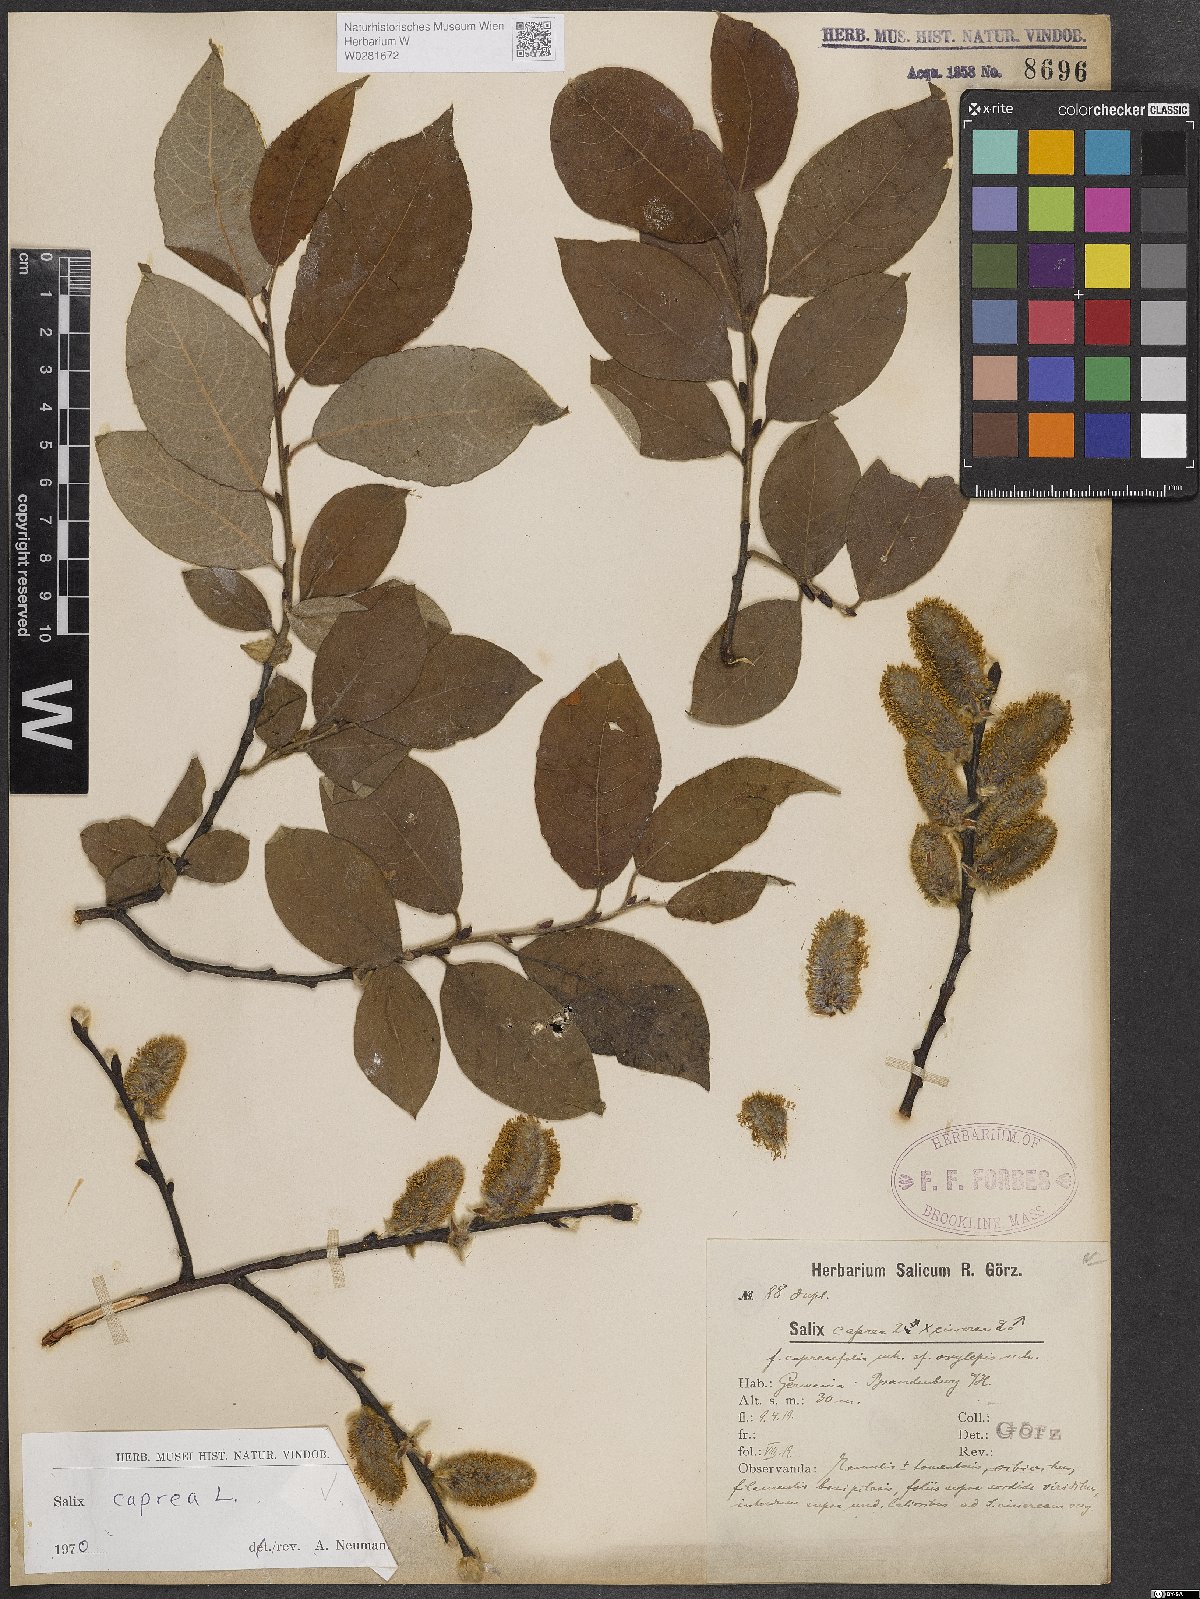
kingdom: Plantae
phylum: Tracheophyta
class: Magnoliopsida
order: Malpighiales
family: Salicaceae
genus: Salix
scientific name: Salix caprea
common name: Goat willow
